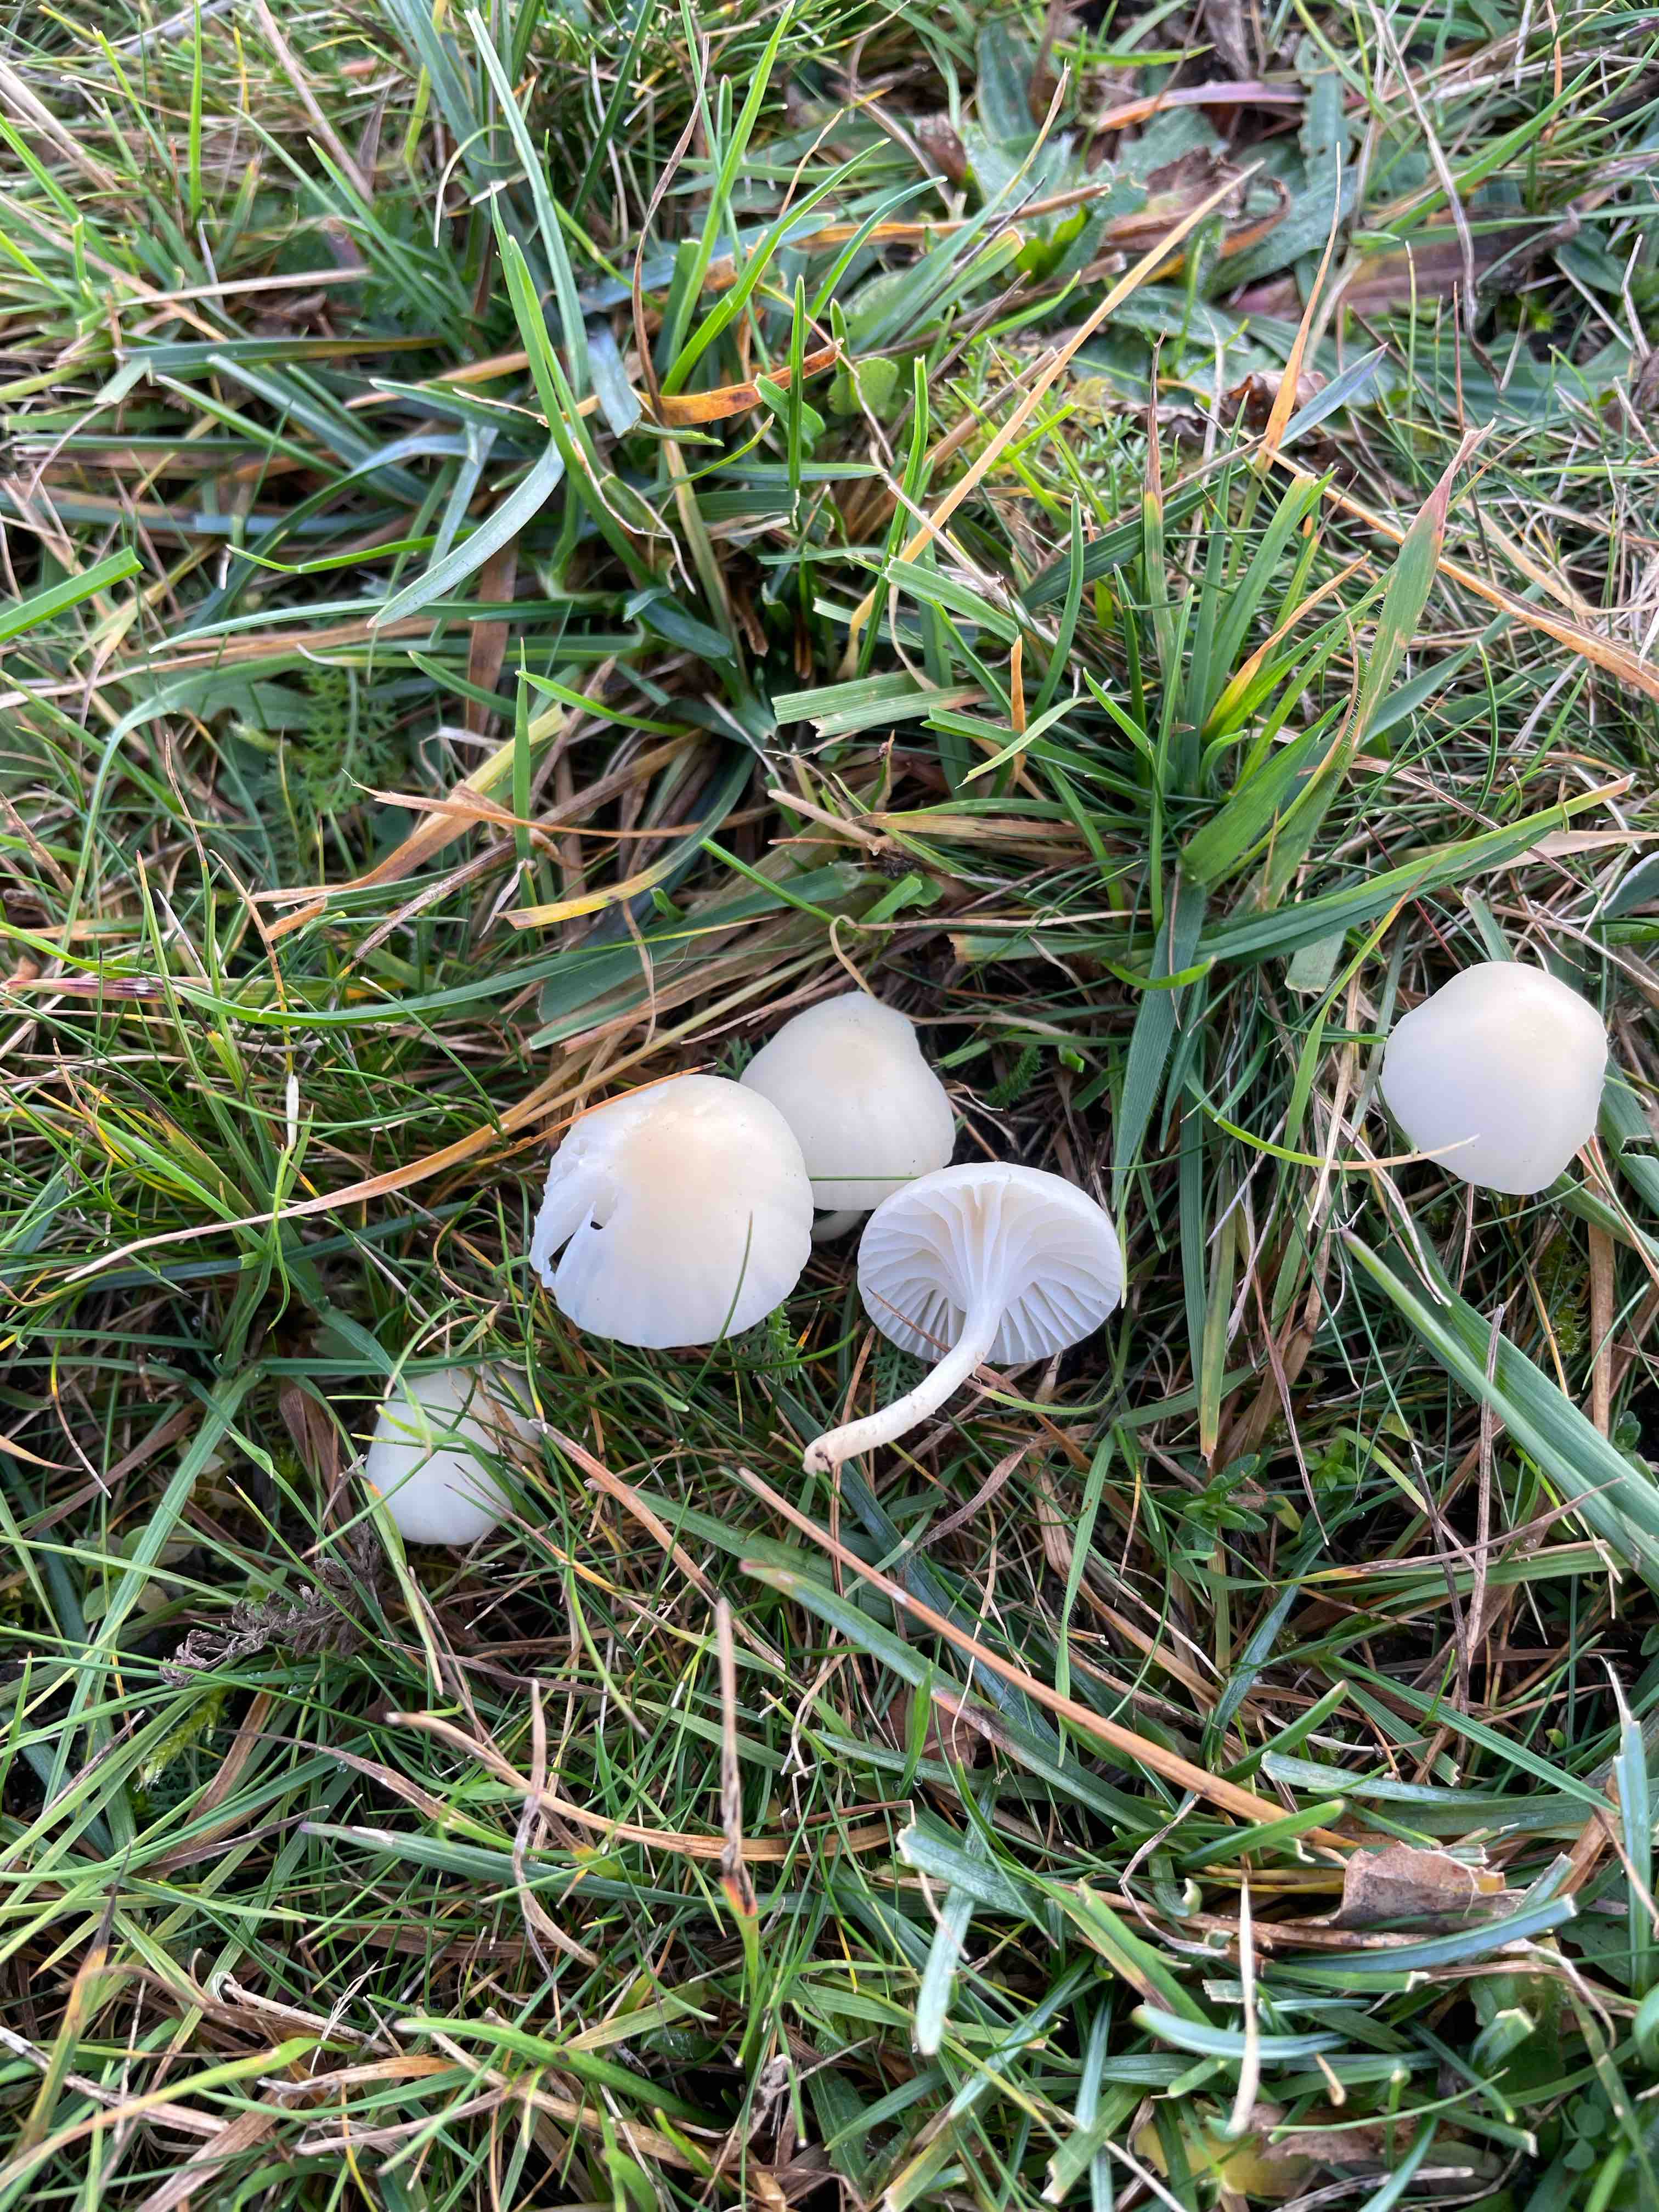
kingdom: Fungi
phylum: Basidiomycota
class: Agaricomycetes
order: Agaricales
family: Hygrophoraceae
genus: Cuphophyllus
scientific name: Cuphophyllus russocoriaceus
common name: ruslæder-vokshat
